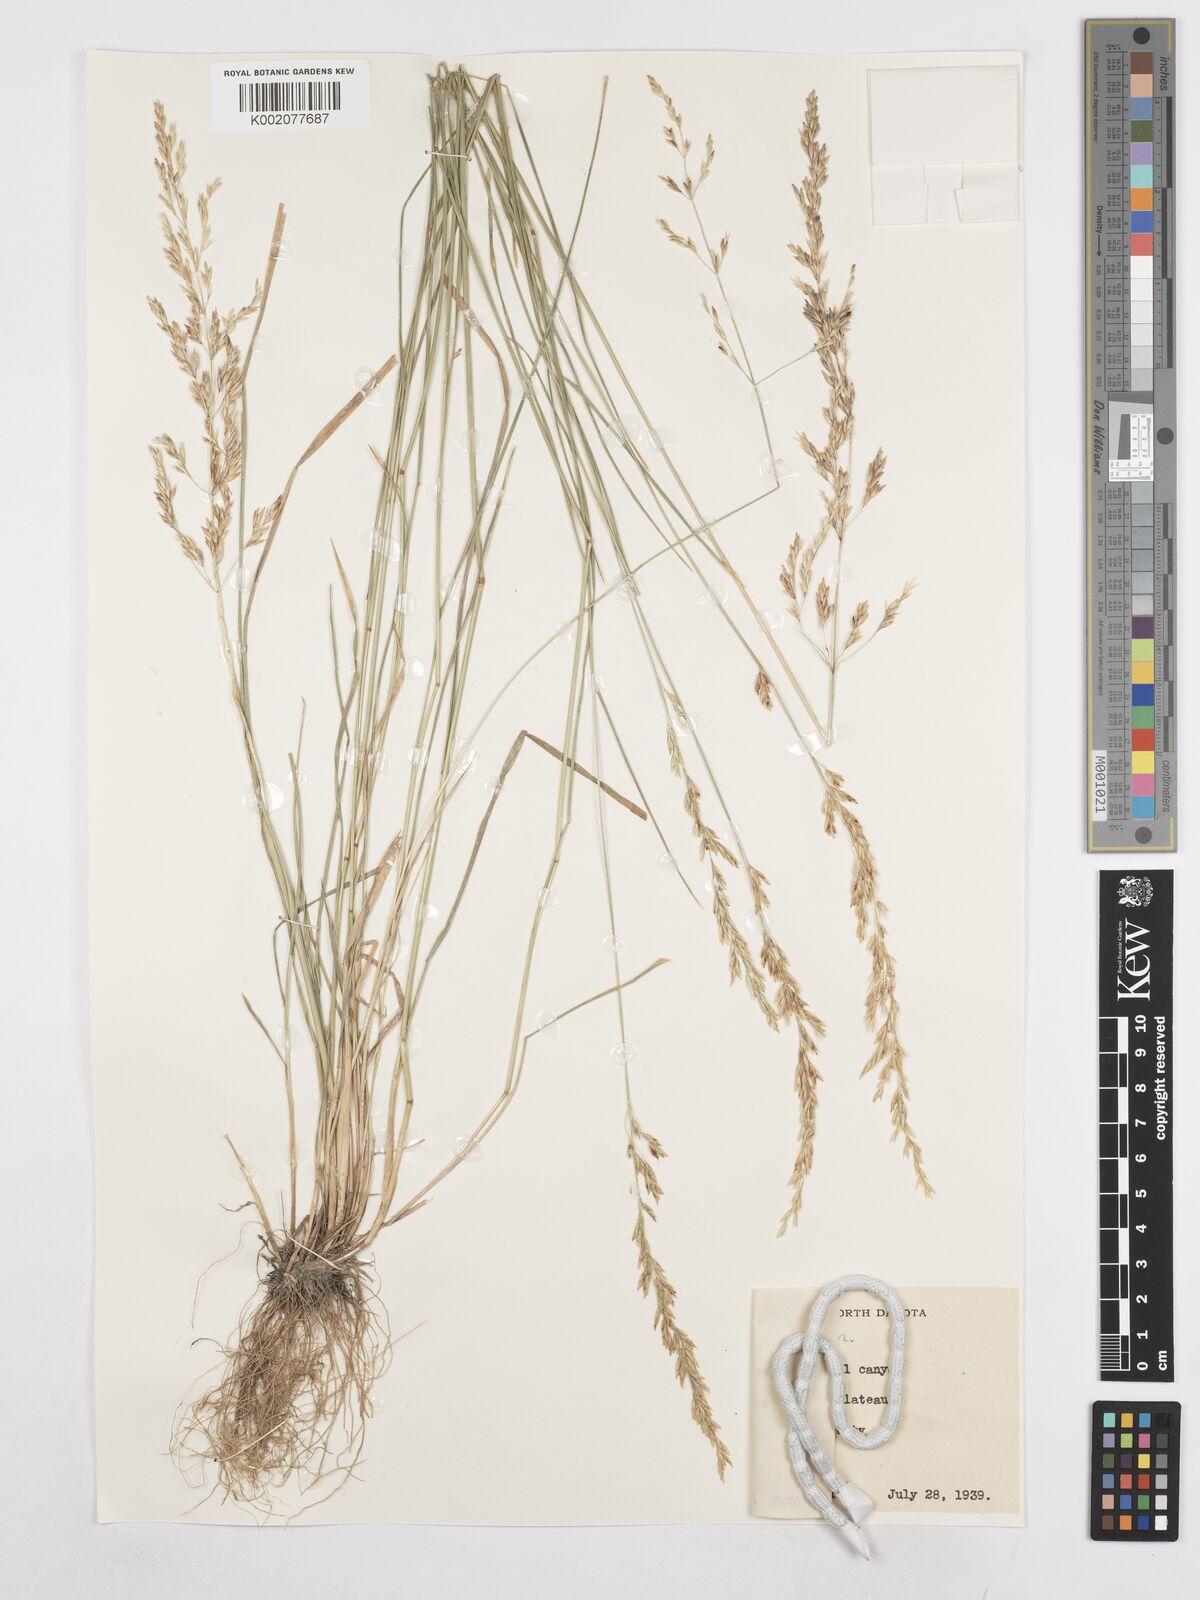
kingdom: Plantae
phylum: Tracheophyta
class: Liliopsida
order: Poales
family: Poaceae
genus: Poa
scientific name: Poa secunda
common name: Sandberg bluegrass
